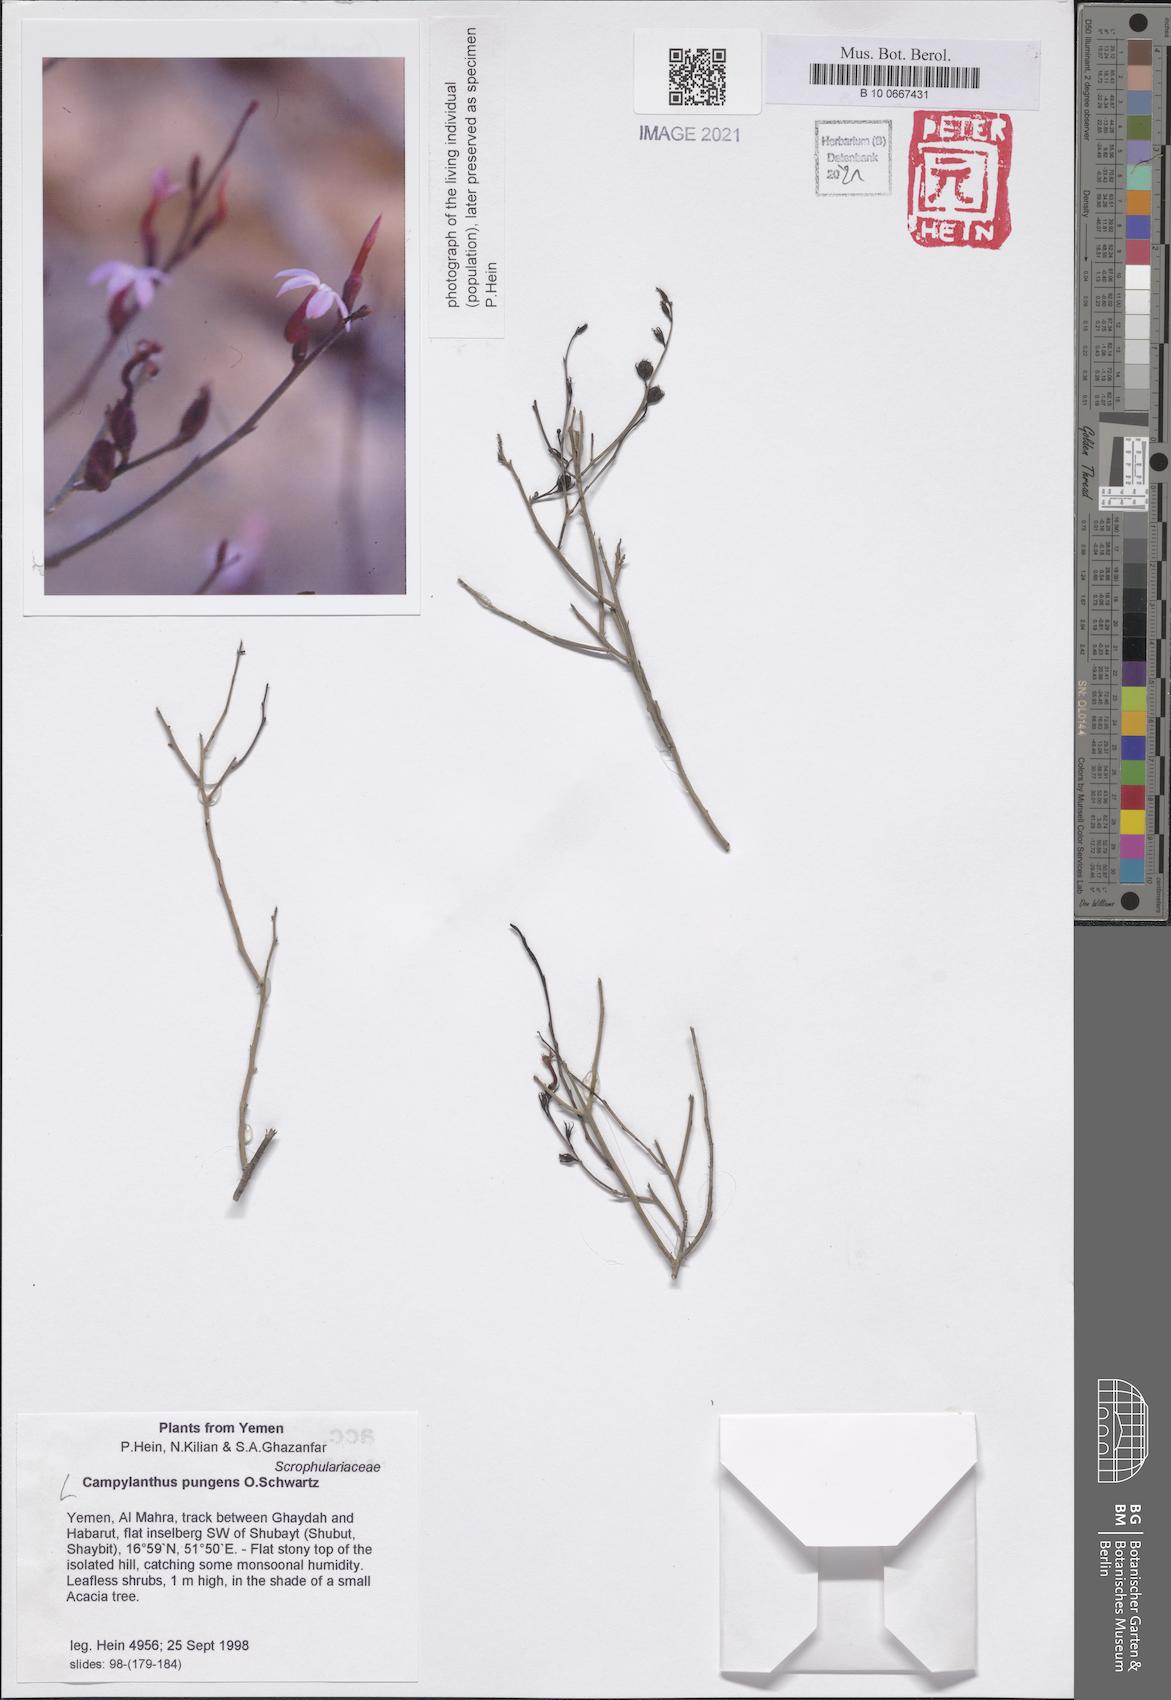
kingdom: Plantae
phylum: Tracheophyta
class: Magnoliopsida
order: Lamiales
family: Plantaginaceae
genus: Campylanthus
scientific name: Campylanthus pungens
